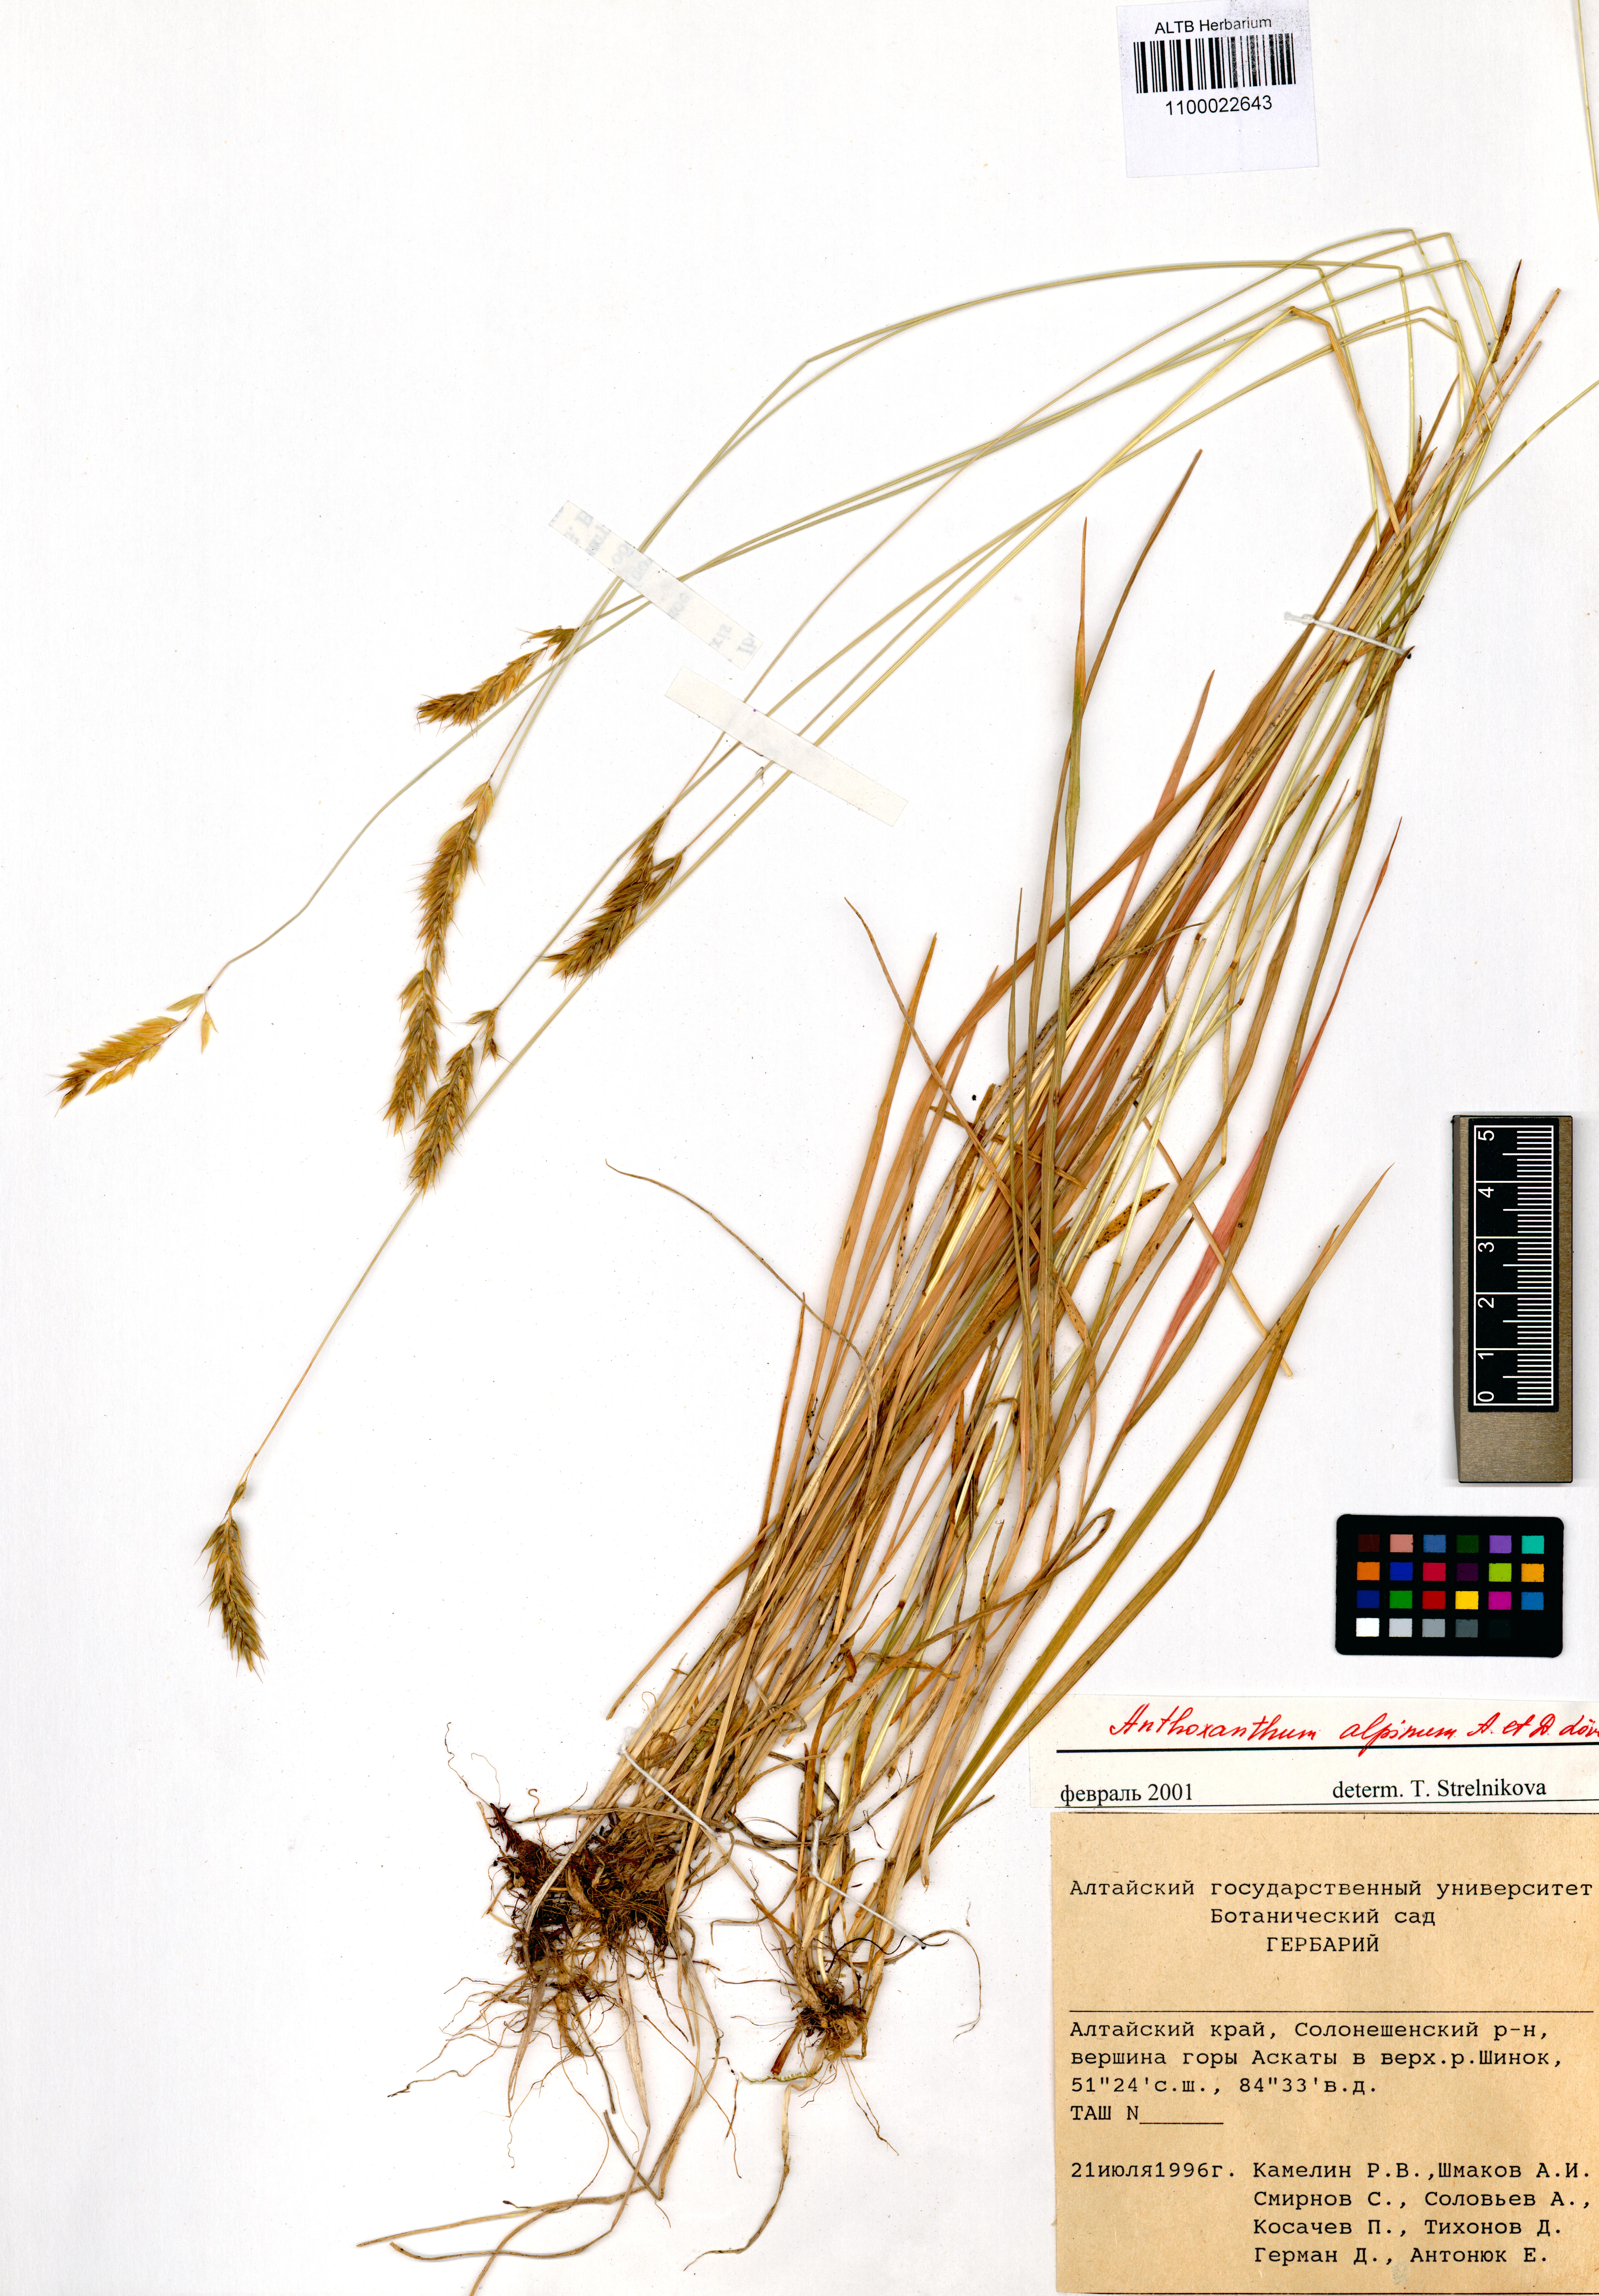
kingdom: Plantae
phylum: Tracheophyta
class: Liliopsida
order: Poales
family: Poaceae
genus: Anthoxanthum
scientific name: Anthoxanthum odoratum
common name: Sweet vernalgrass
